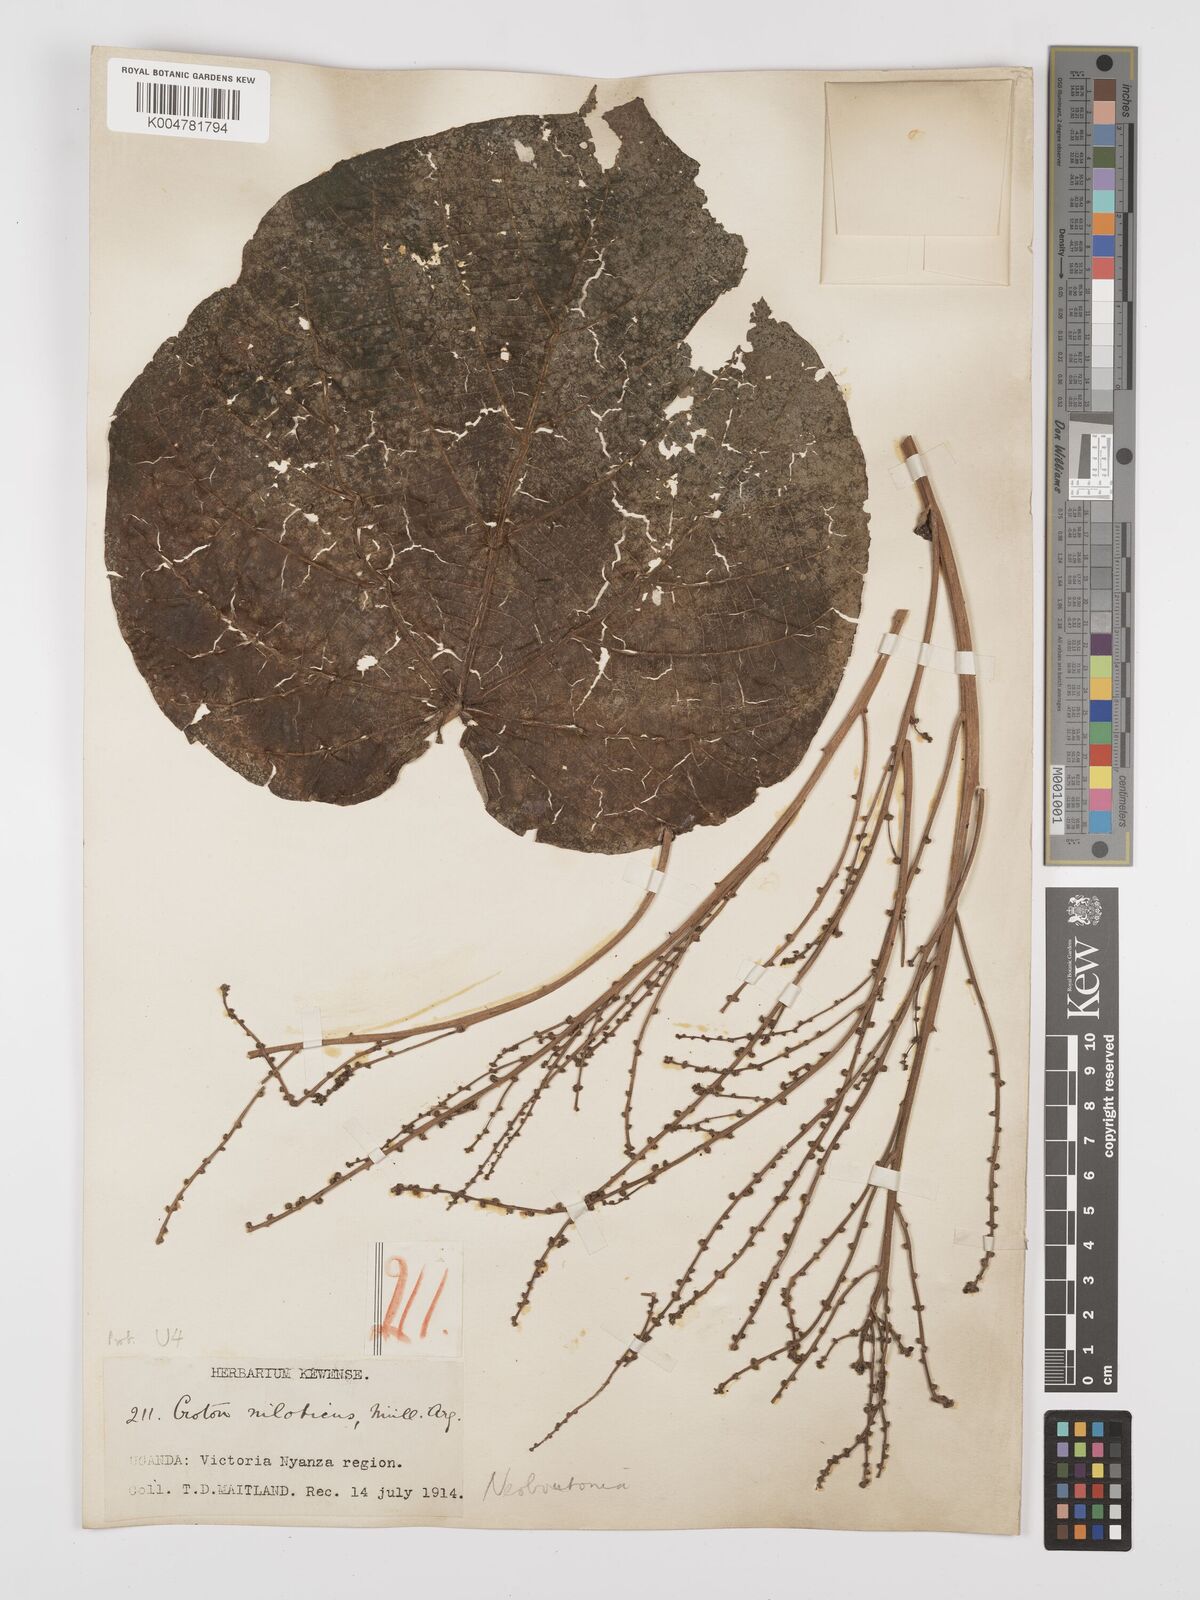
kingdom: Plantae
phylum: Tracheophyta
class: Magnoliopsida
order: Malpighiales
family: Euphorbiaceae
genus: Neoboutonia
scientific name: Neoboutonia melleri
